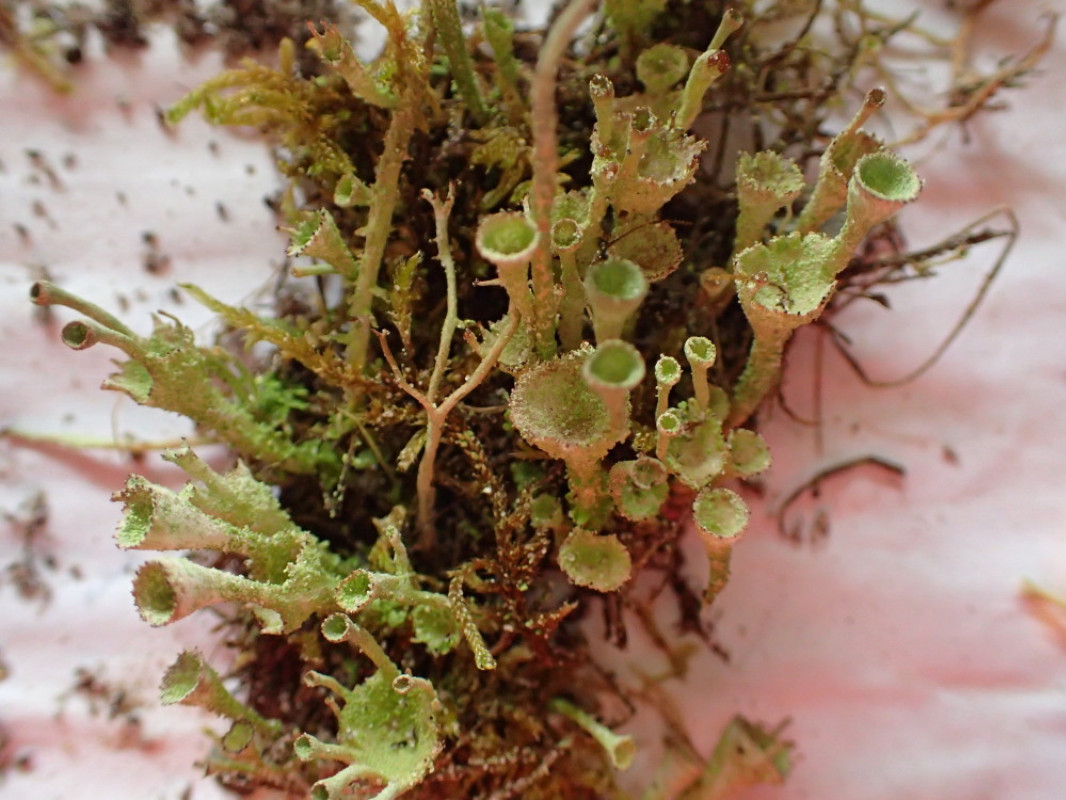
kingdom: Fungi
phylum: Ascomycota
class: Lecanoromycetes
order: Lecanorales
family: Cladoniaceae
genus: Cladonia
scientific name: Cladonia
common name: brungrøn bægerlav
